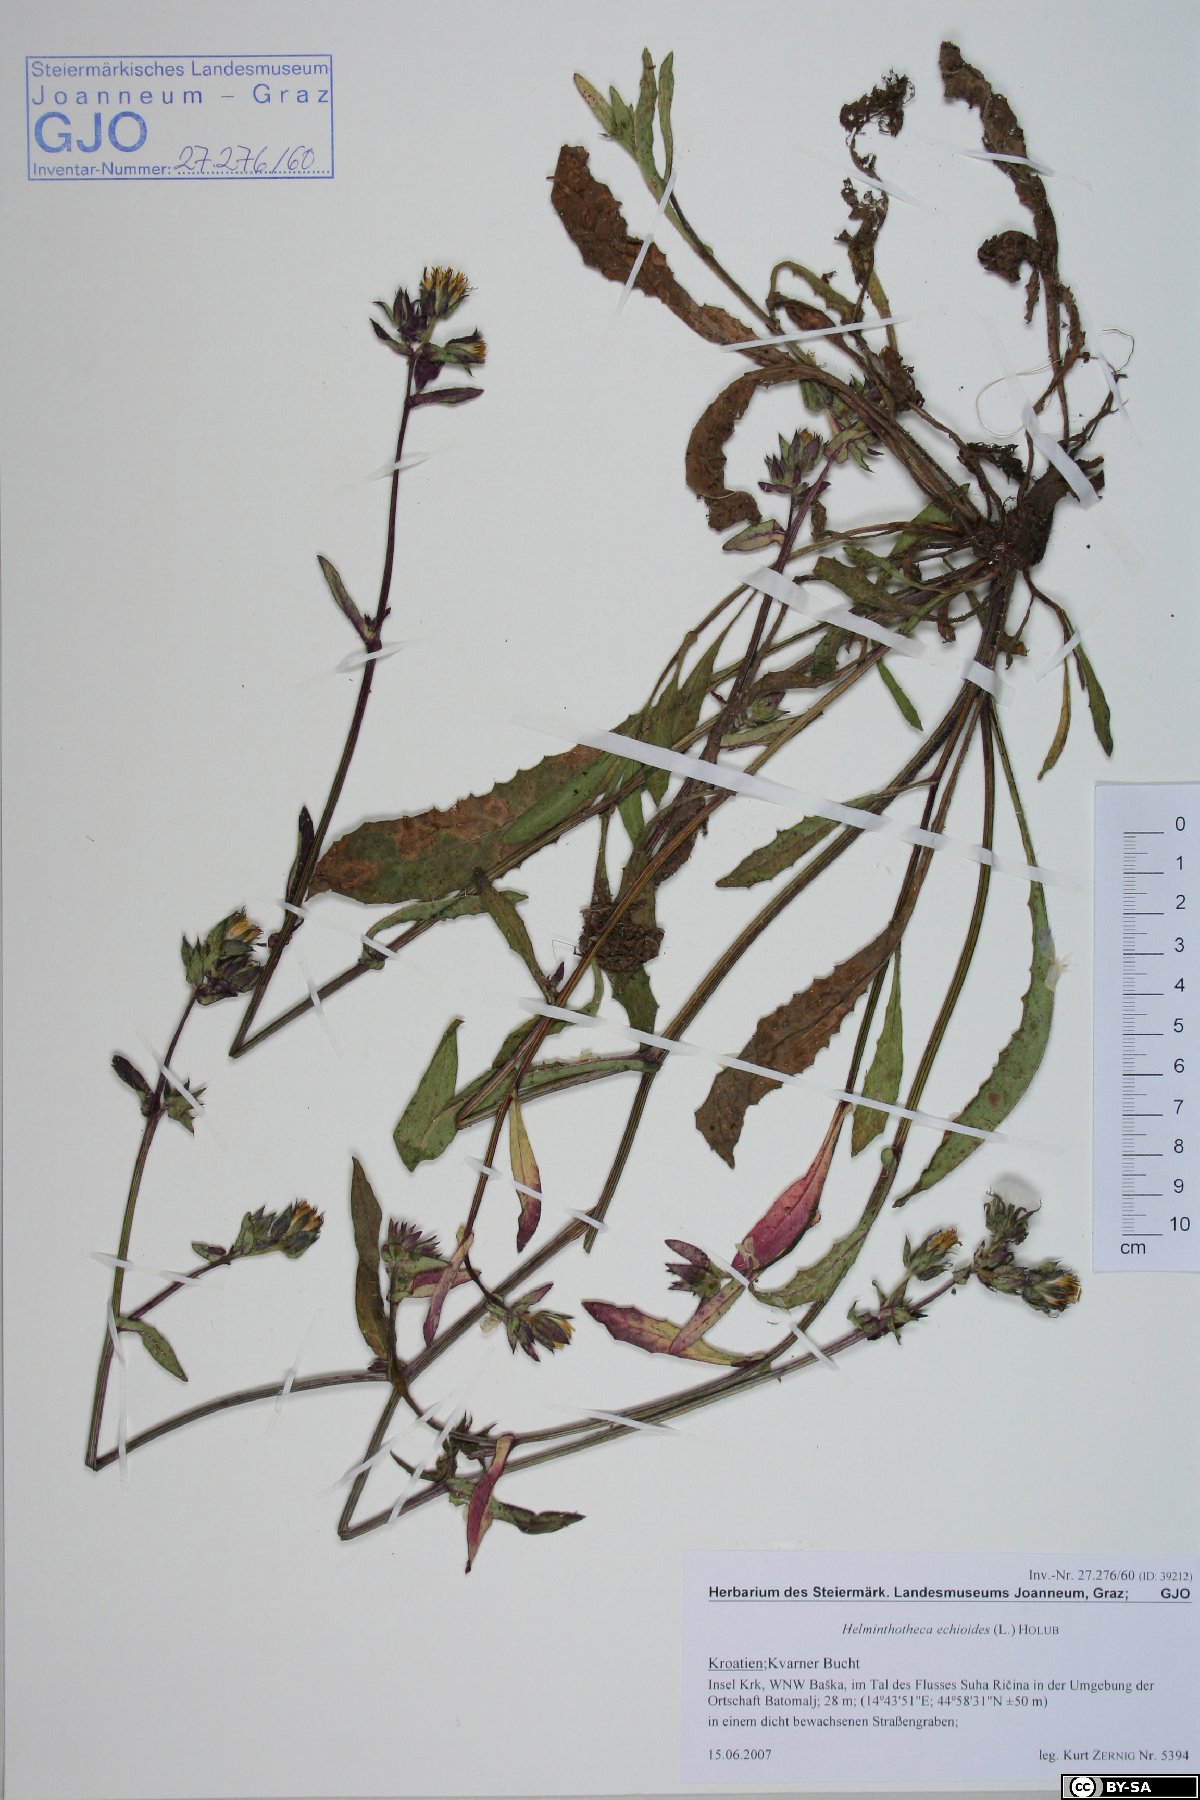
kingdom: Plantae
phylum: Tracheophyta
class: Magnoliopsida
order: Asterales
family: Asteraceae
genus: Helminthotheca
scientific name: Helminthotheca echioides
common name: Ox-tongue
